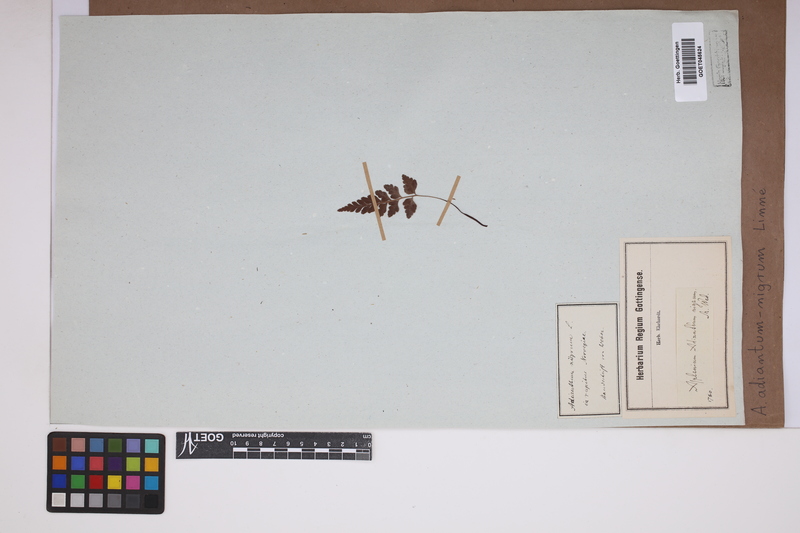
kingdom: Plantae
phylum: Tracheophyta
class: Polypodiopsida
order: Polypodiales
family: Aspleniaceae
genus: Asplenium
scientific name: Asplenium adiantum-nigrum
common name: Black spleenwort
